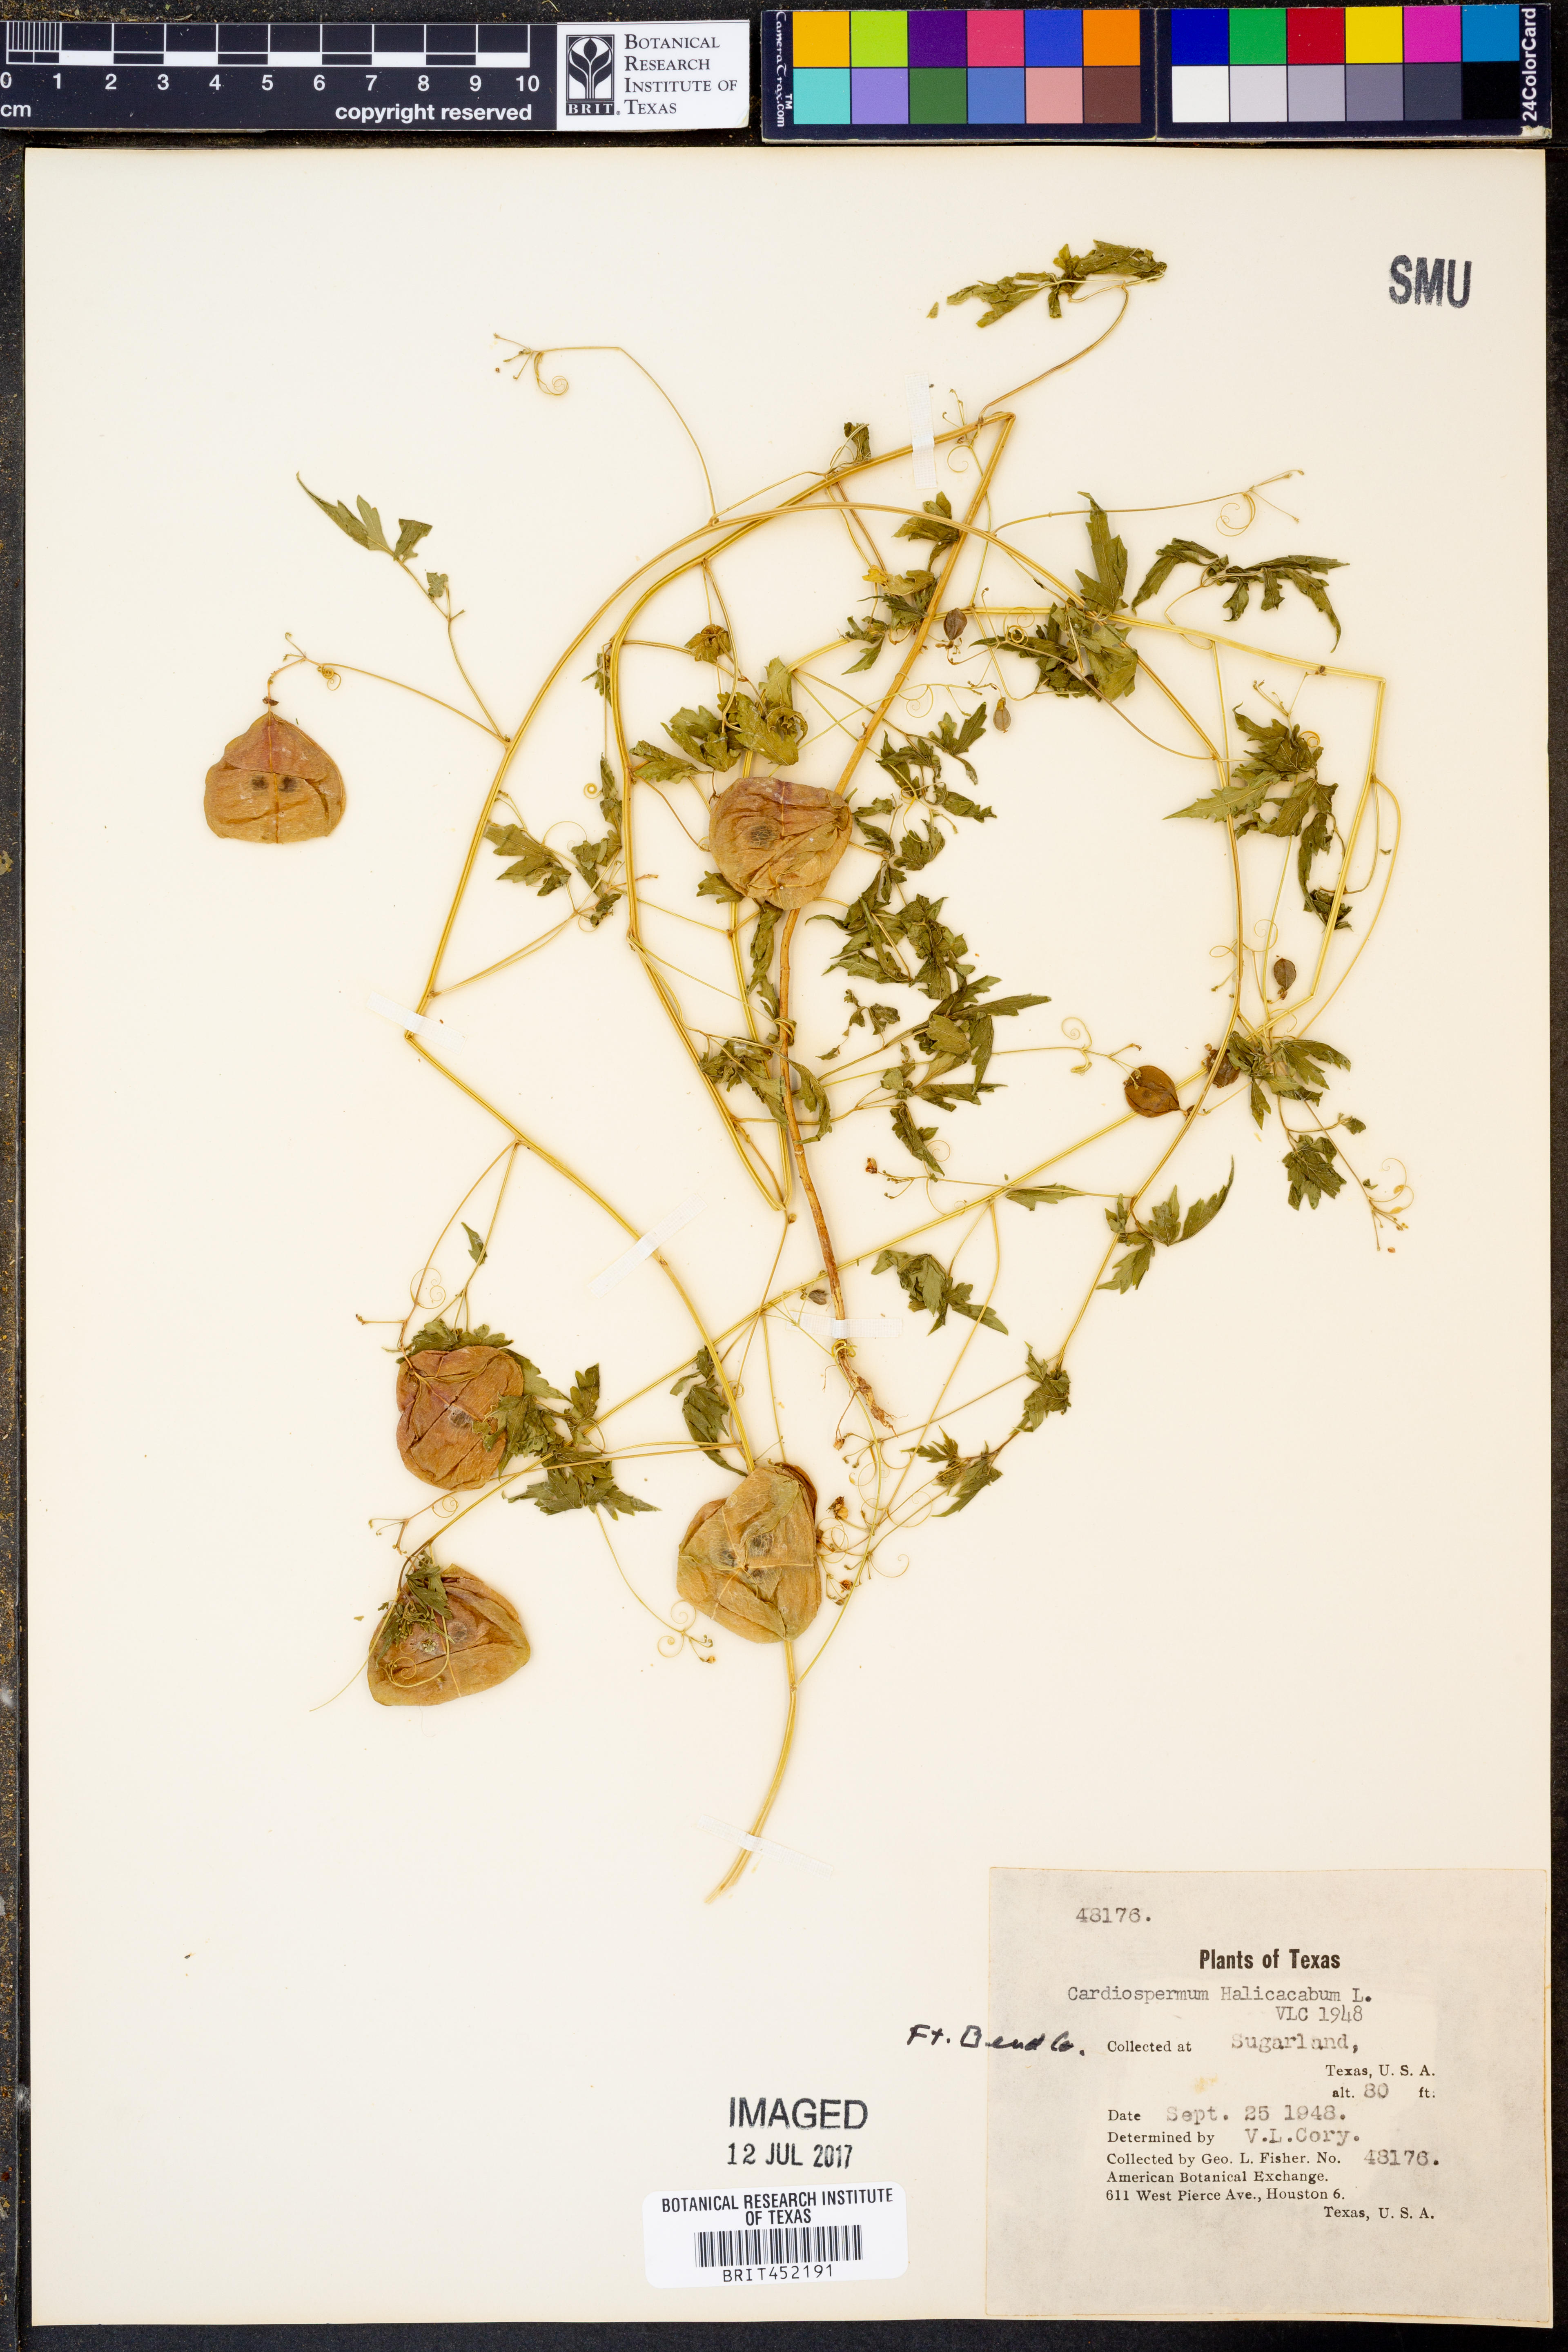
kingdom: Plantae
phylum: Tracheophyta
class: Magnoliopsida
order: Sapindales
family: Sapindaceae
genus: Cardiospermum
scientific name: Cardiospermum halicacabum
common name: Balloon vine
